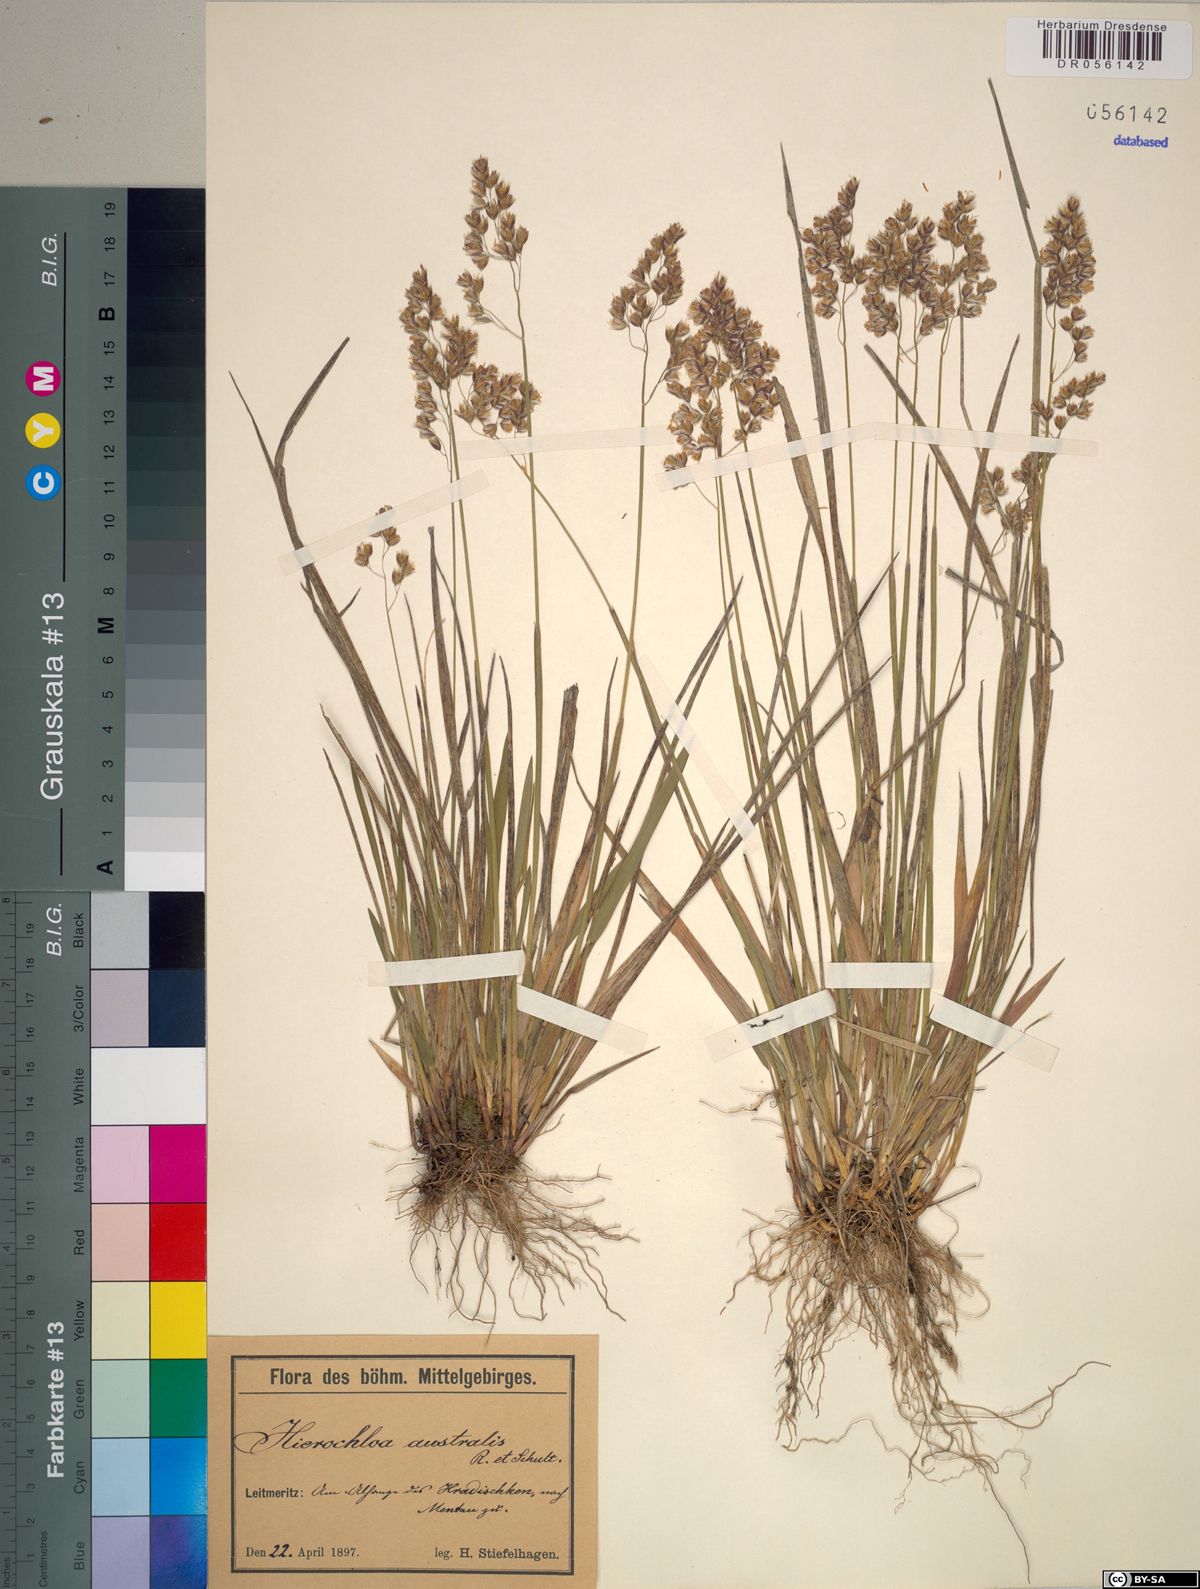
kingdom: Plantae
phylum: Tracheophyta
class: Liliopsida
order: Poales
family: Poaceae
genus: Anthoxanthum
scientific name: Anthoxanthum australe
